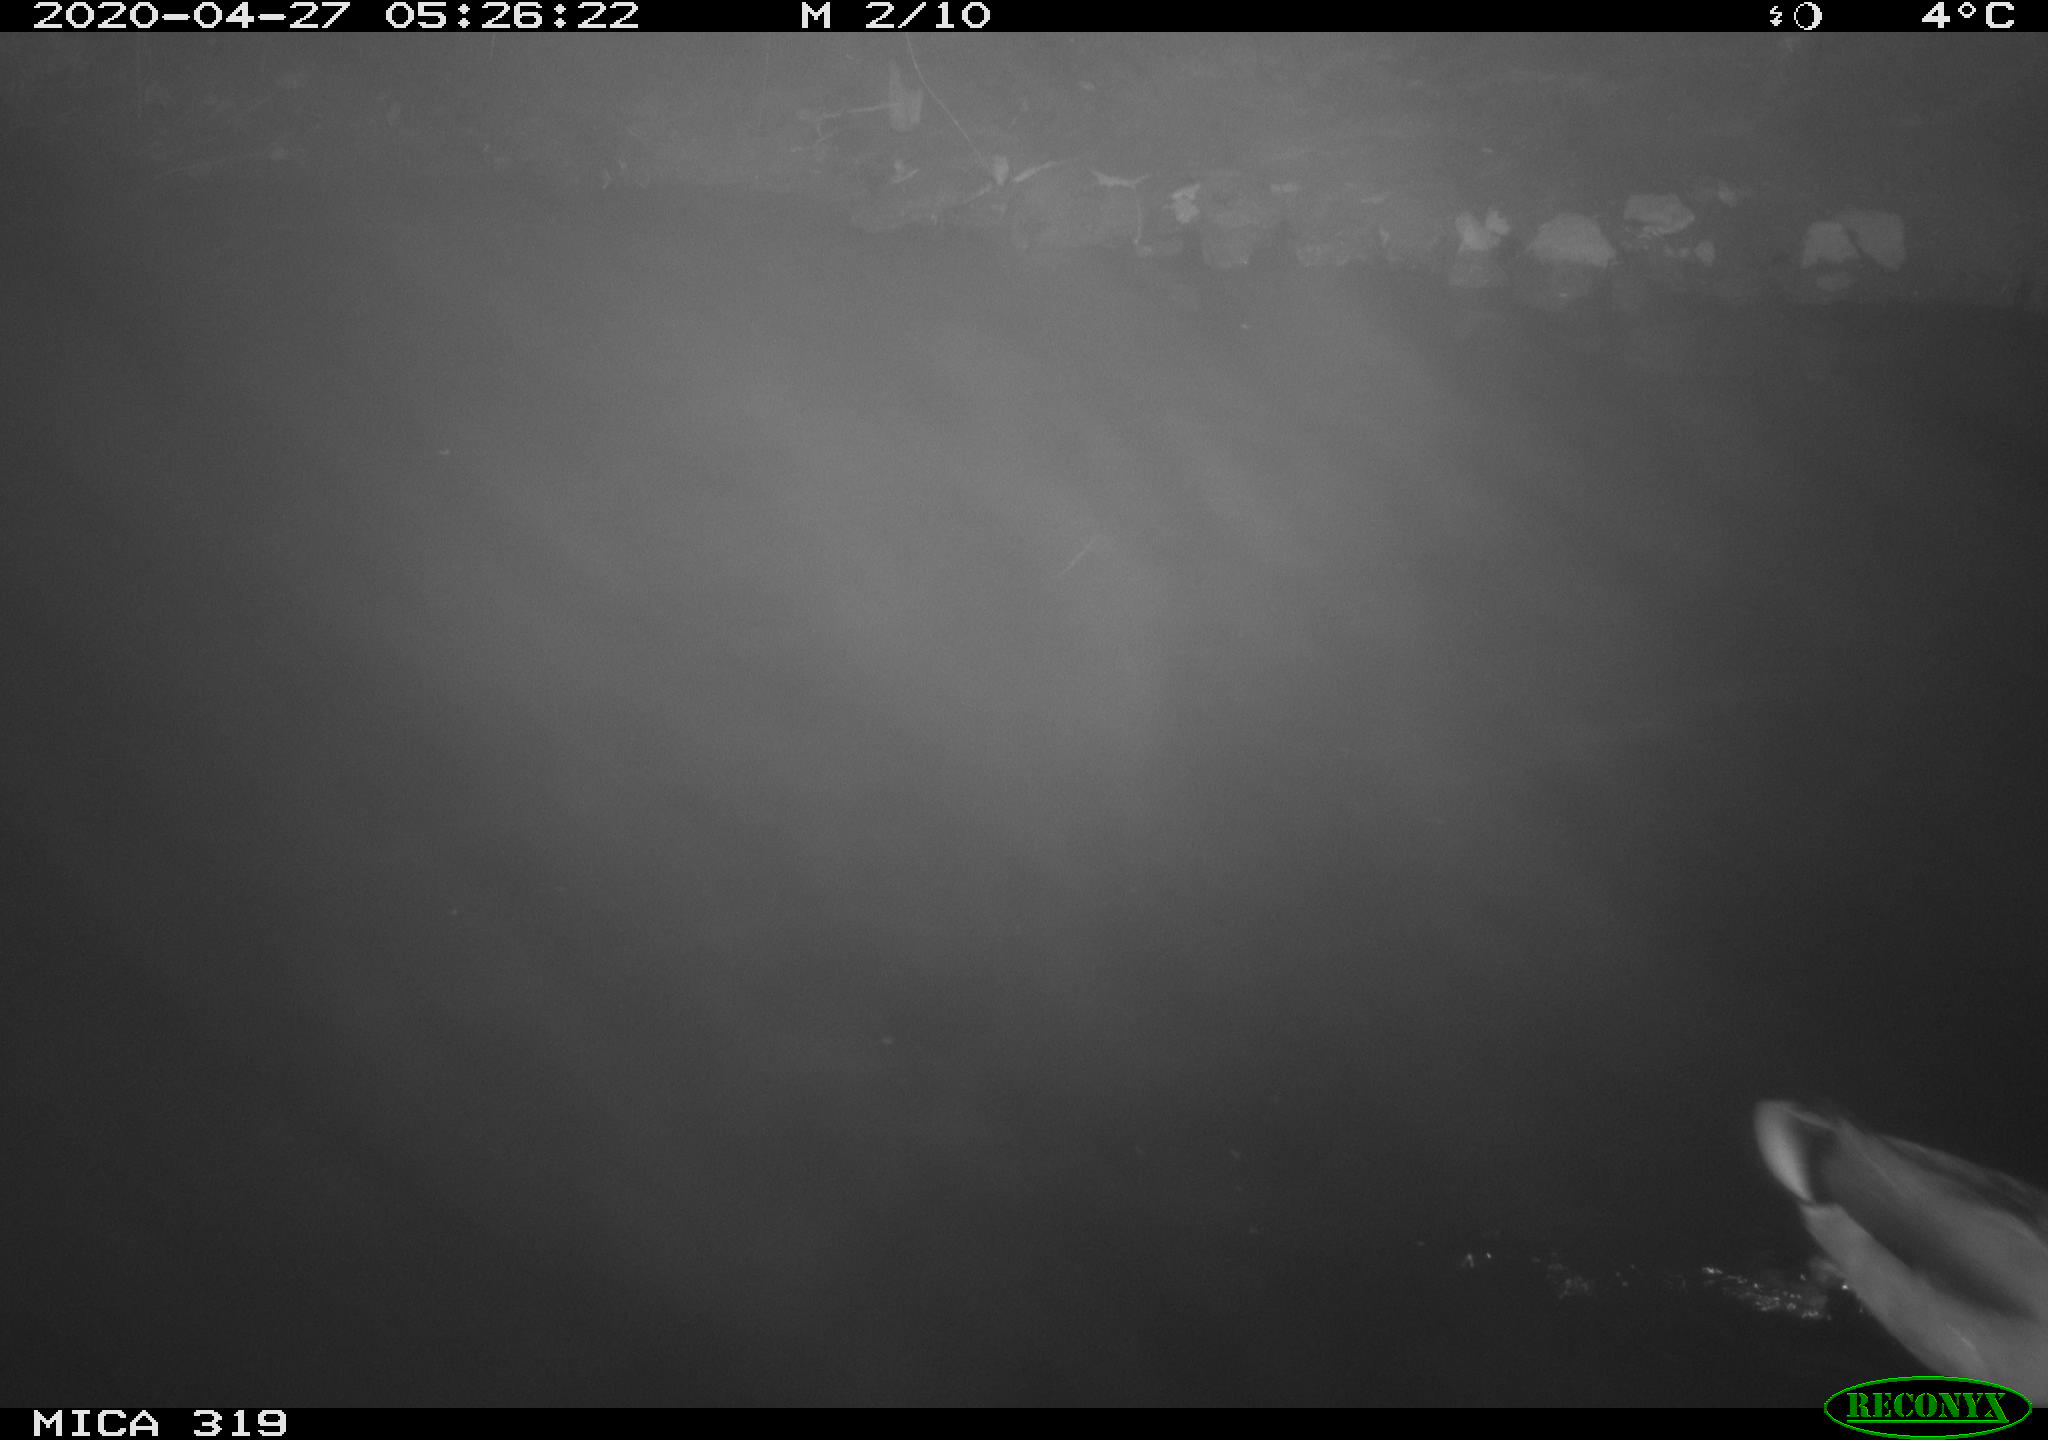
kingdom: Animalia
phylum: Chordata
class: Aves
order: Anseriformes
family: Anatidae
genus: Anas
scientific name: Anas platyrhynchos
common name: Mallard
